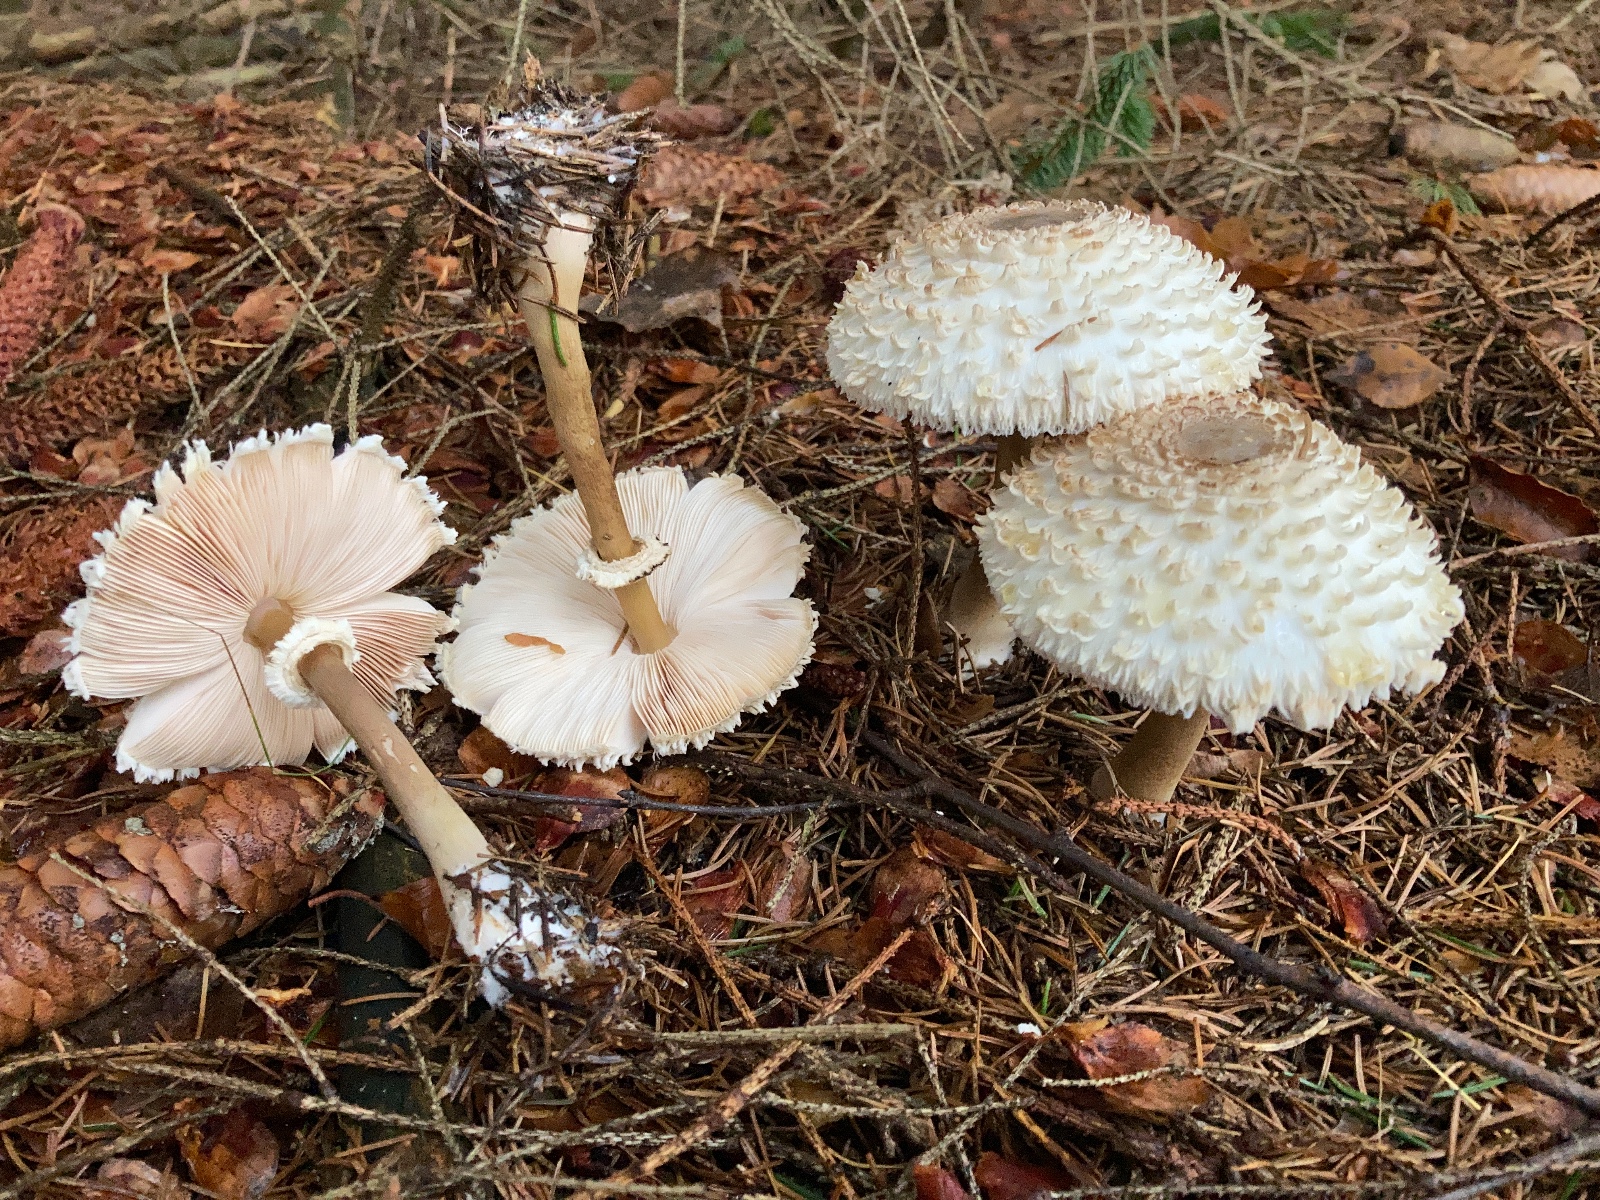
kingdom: Fungi
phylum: Basidiomycota
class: Agaricomycetes
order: Agaricales
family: Agaricaceae
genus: Leucoagaricus
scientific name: Leucoagaricus nympharum
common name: gran-silkehat
